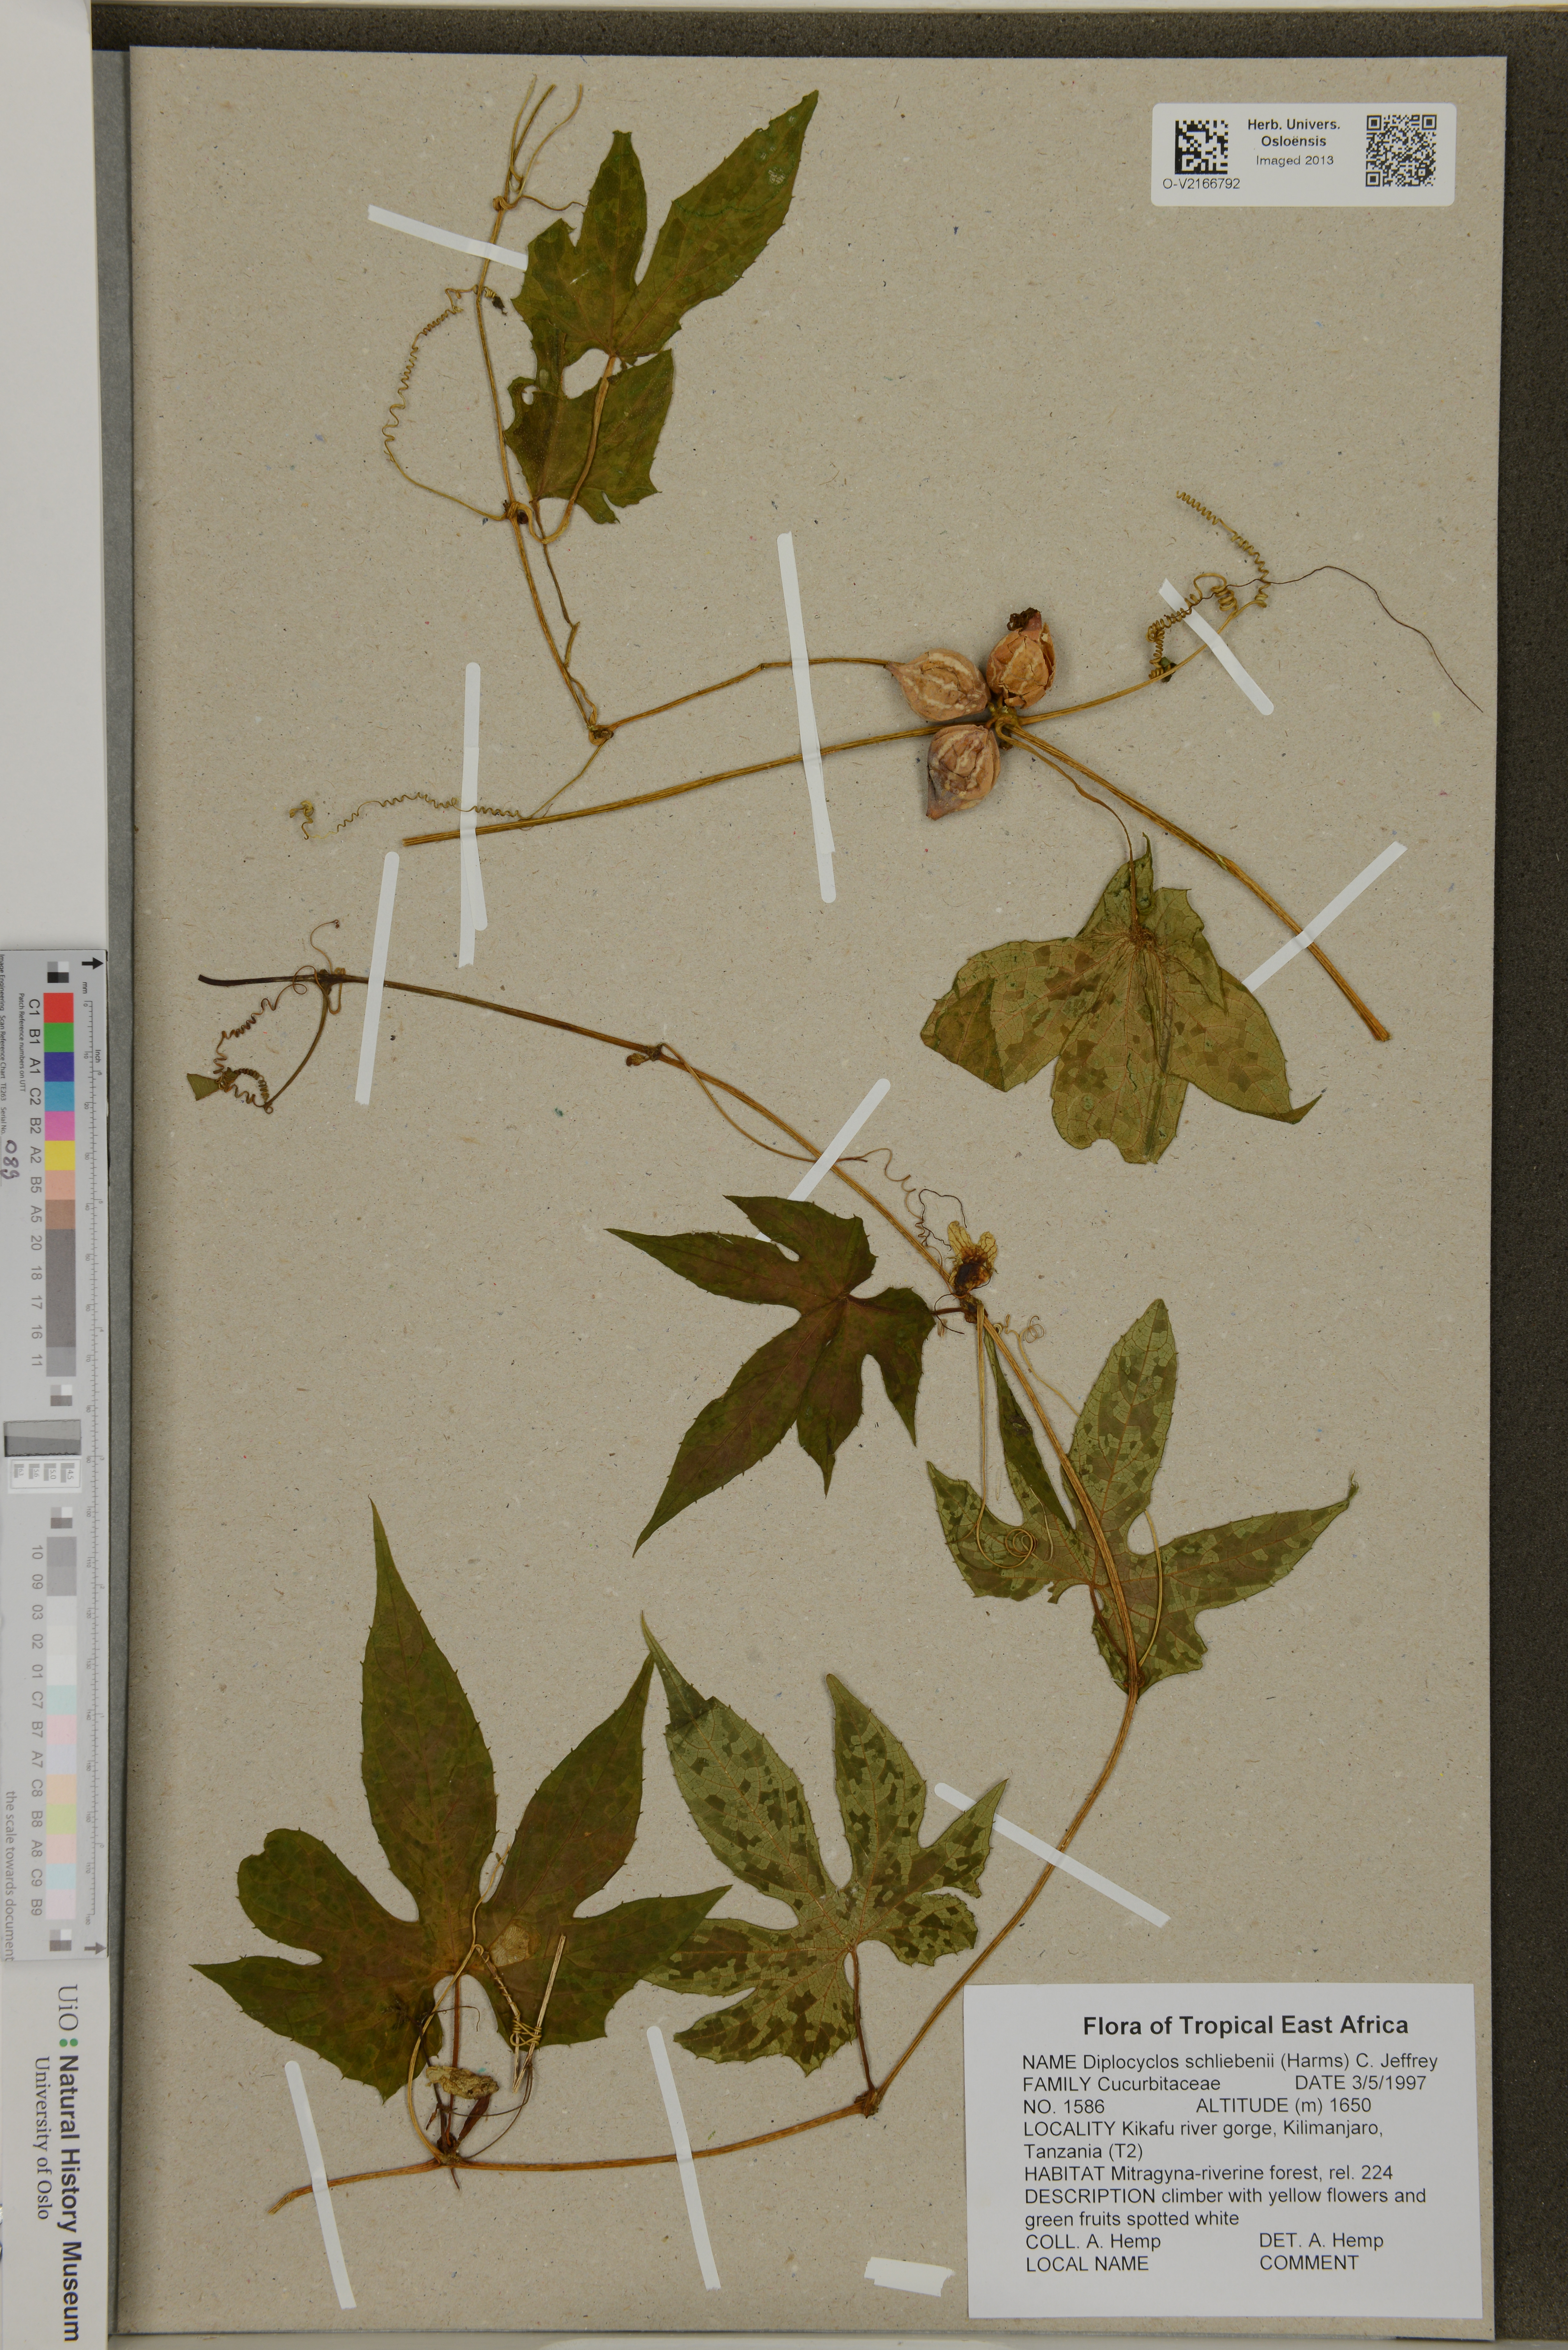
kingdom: Plantae
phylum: Tracheophyta
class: Magnoliopsida
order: Cucurbitales
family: Cucurbitaceae
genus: Diplocyclos
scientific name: Diplocyclos schliebenii
